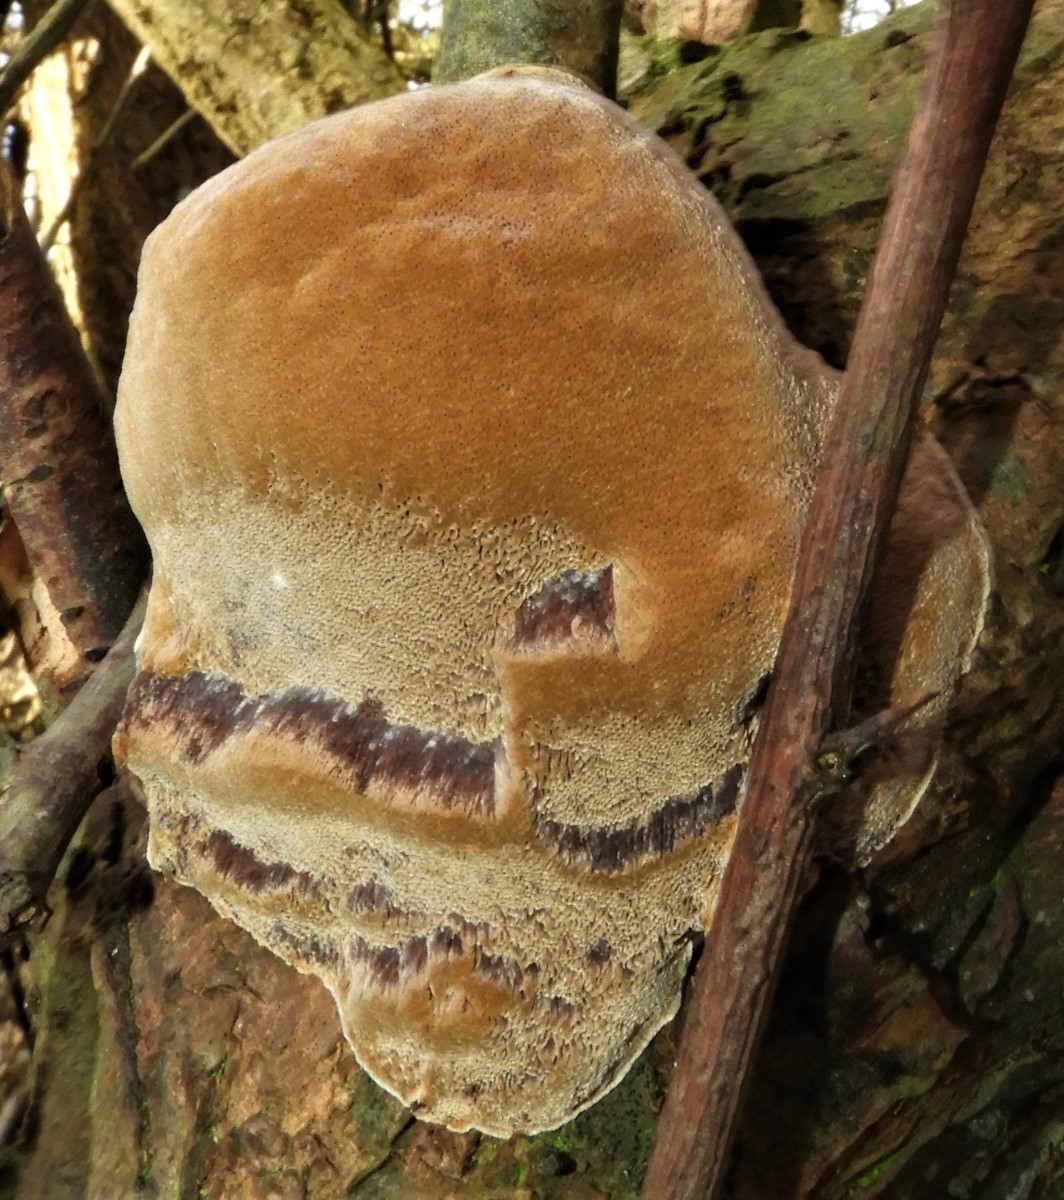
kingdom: Fungi
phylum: Basidiomycota
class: Agaricomycetes
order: Hymenochaetales
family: Hymenochaetaceae
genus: Phellinus
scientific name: Phellinus pomaceus
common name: blomme-ildporesvamp
